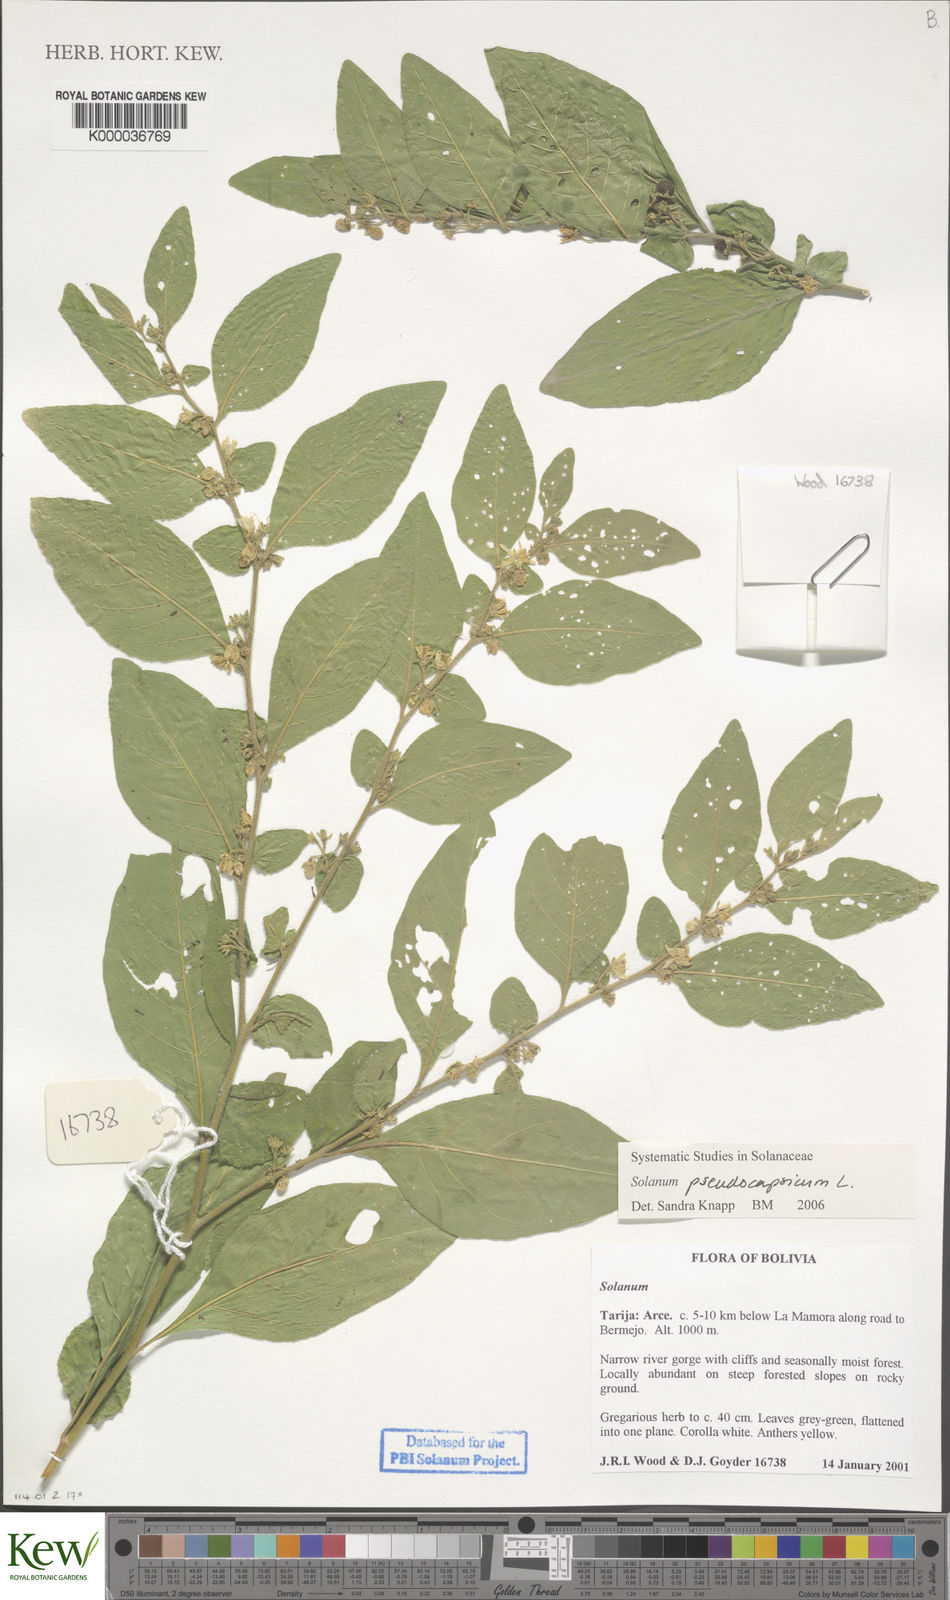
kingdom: Plantae
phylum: Tracheophyta
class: Magnoliopsida
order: Solanales
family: Solanaceae
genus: Solanum
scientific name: Solanum pseudocapsicum
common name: Jerusalem cherry
